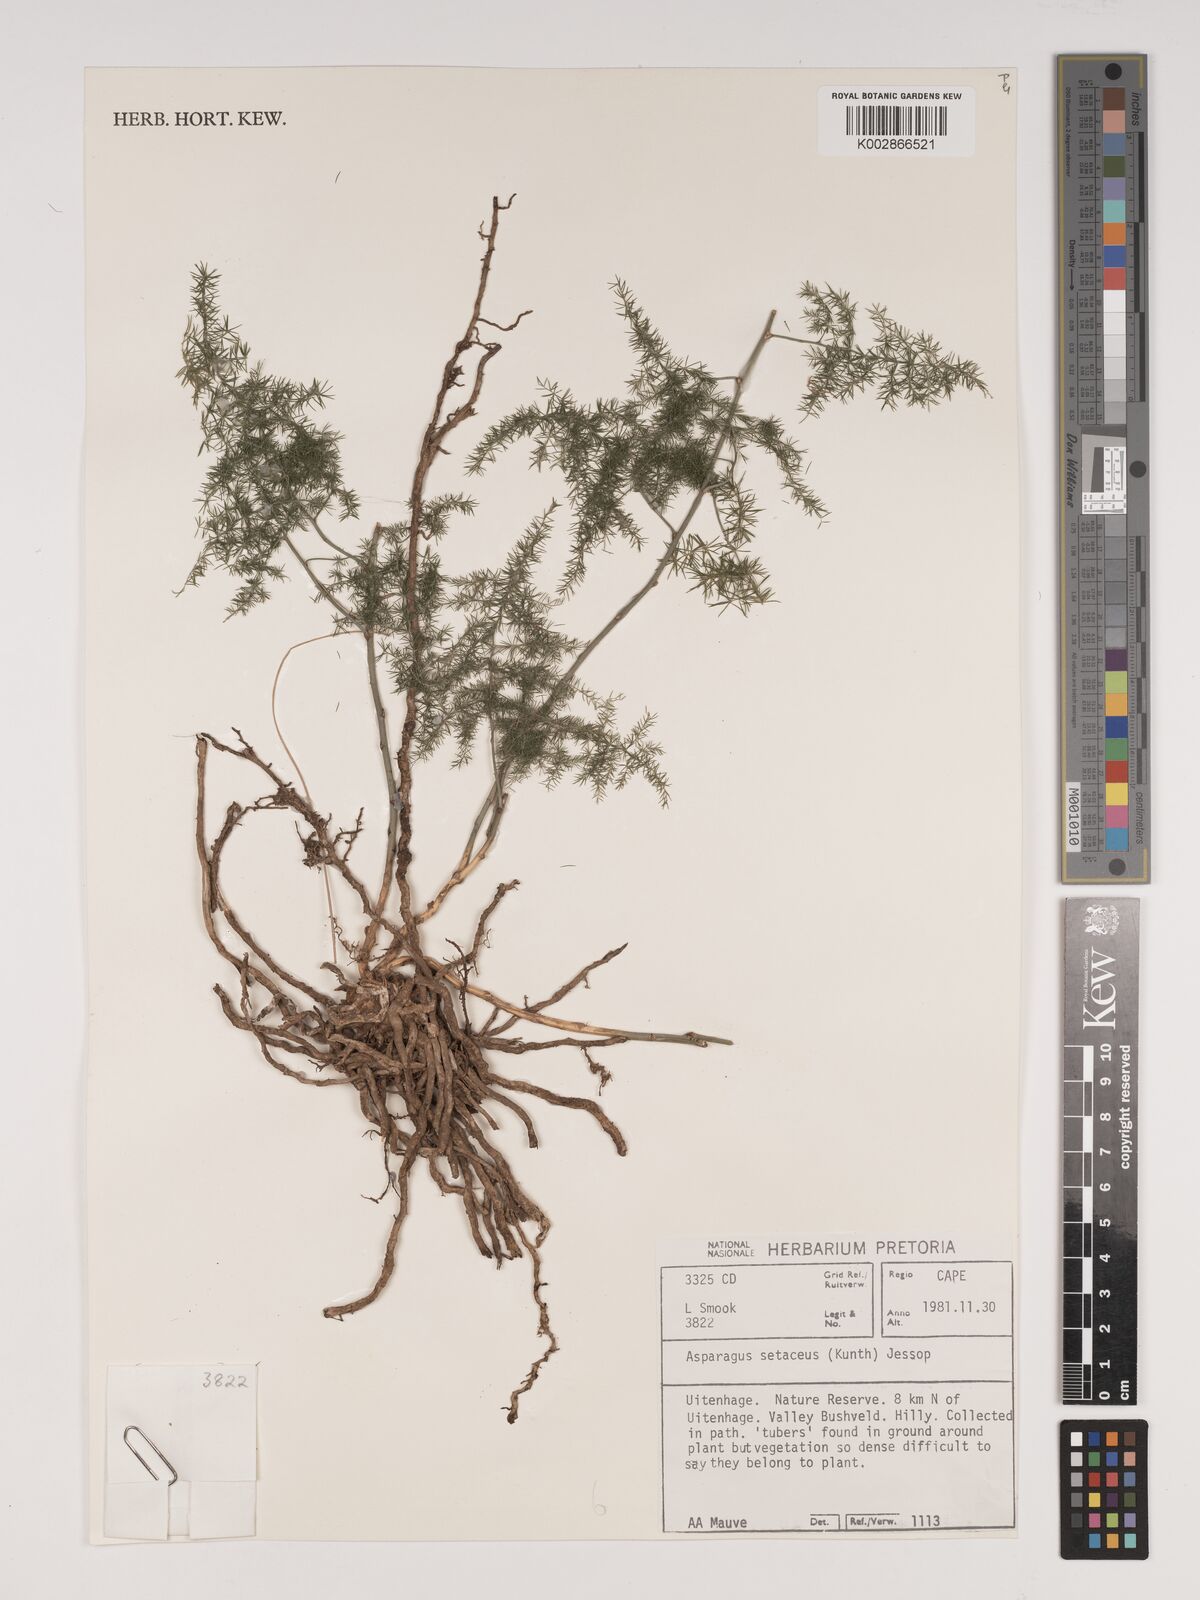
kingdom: Plantae
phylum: Tracheophyta
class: Liliopsida
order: Asparagales
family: Asparagaceae
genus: Asparagus
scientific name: Asparagus setaceus
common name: Common asparagus fern
